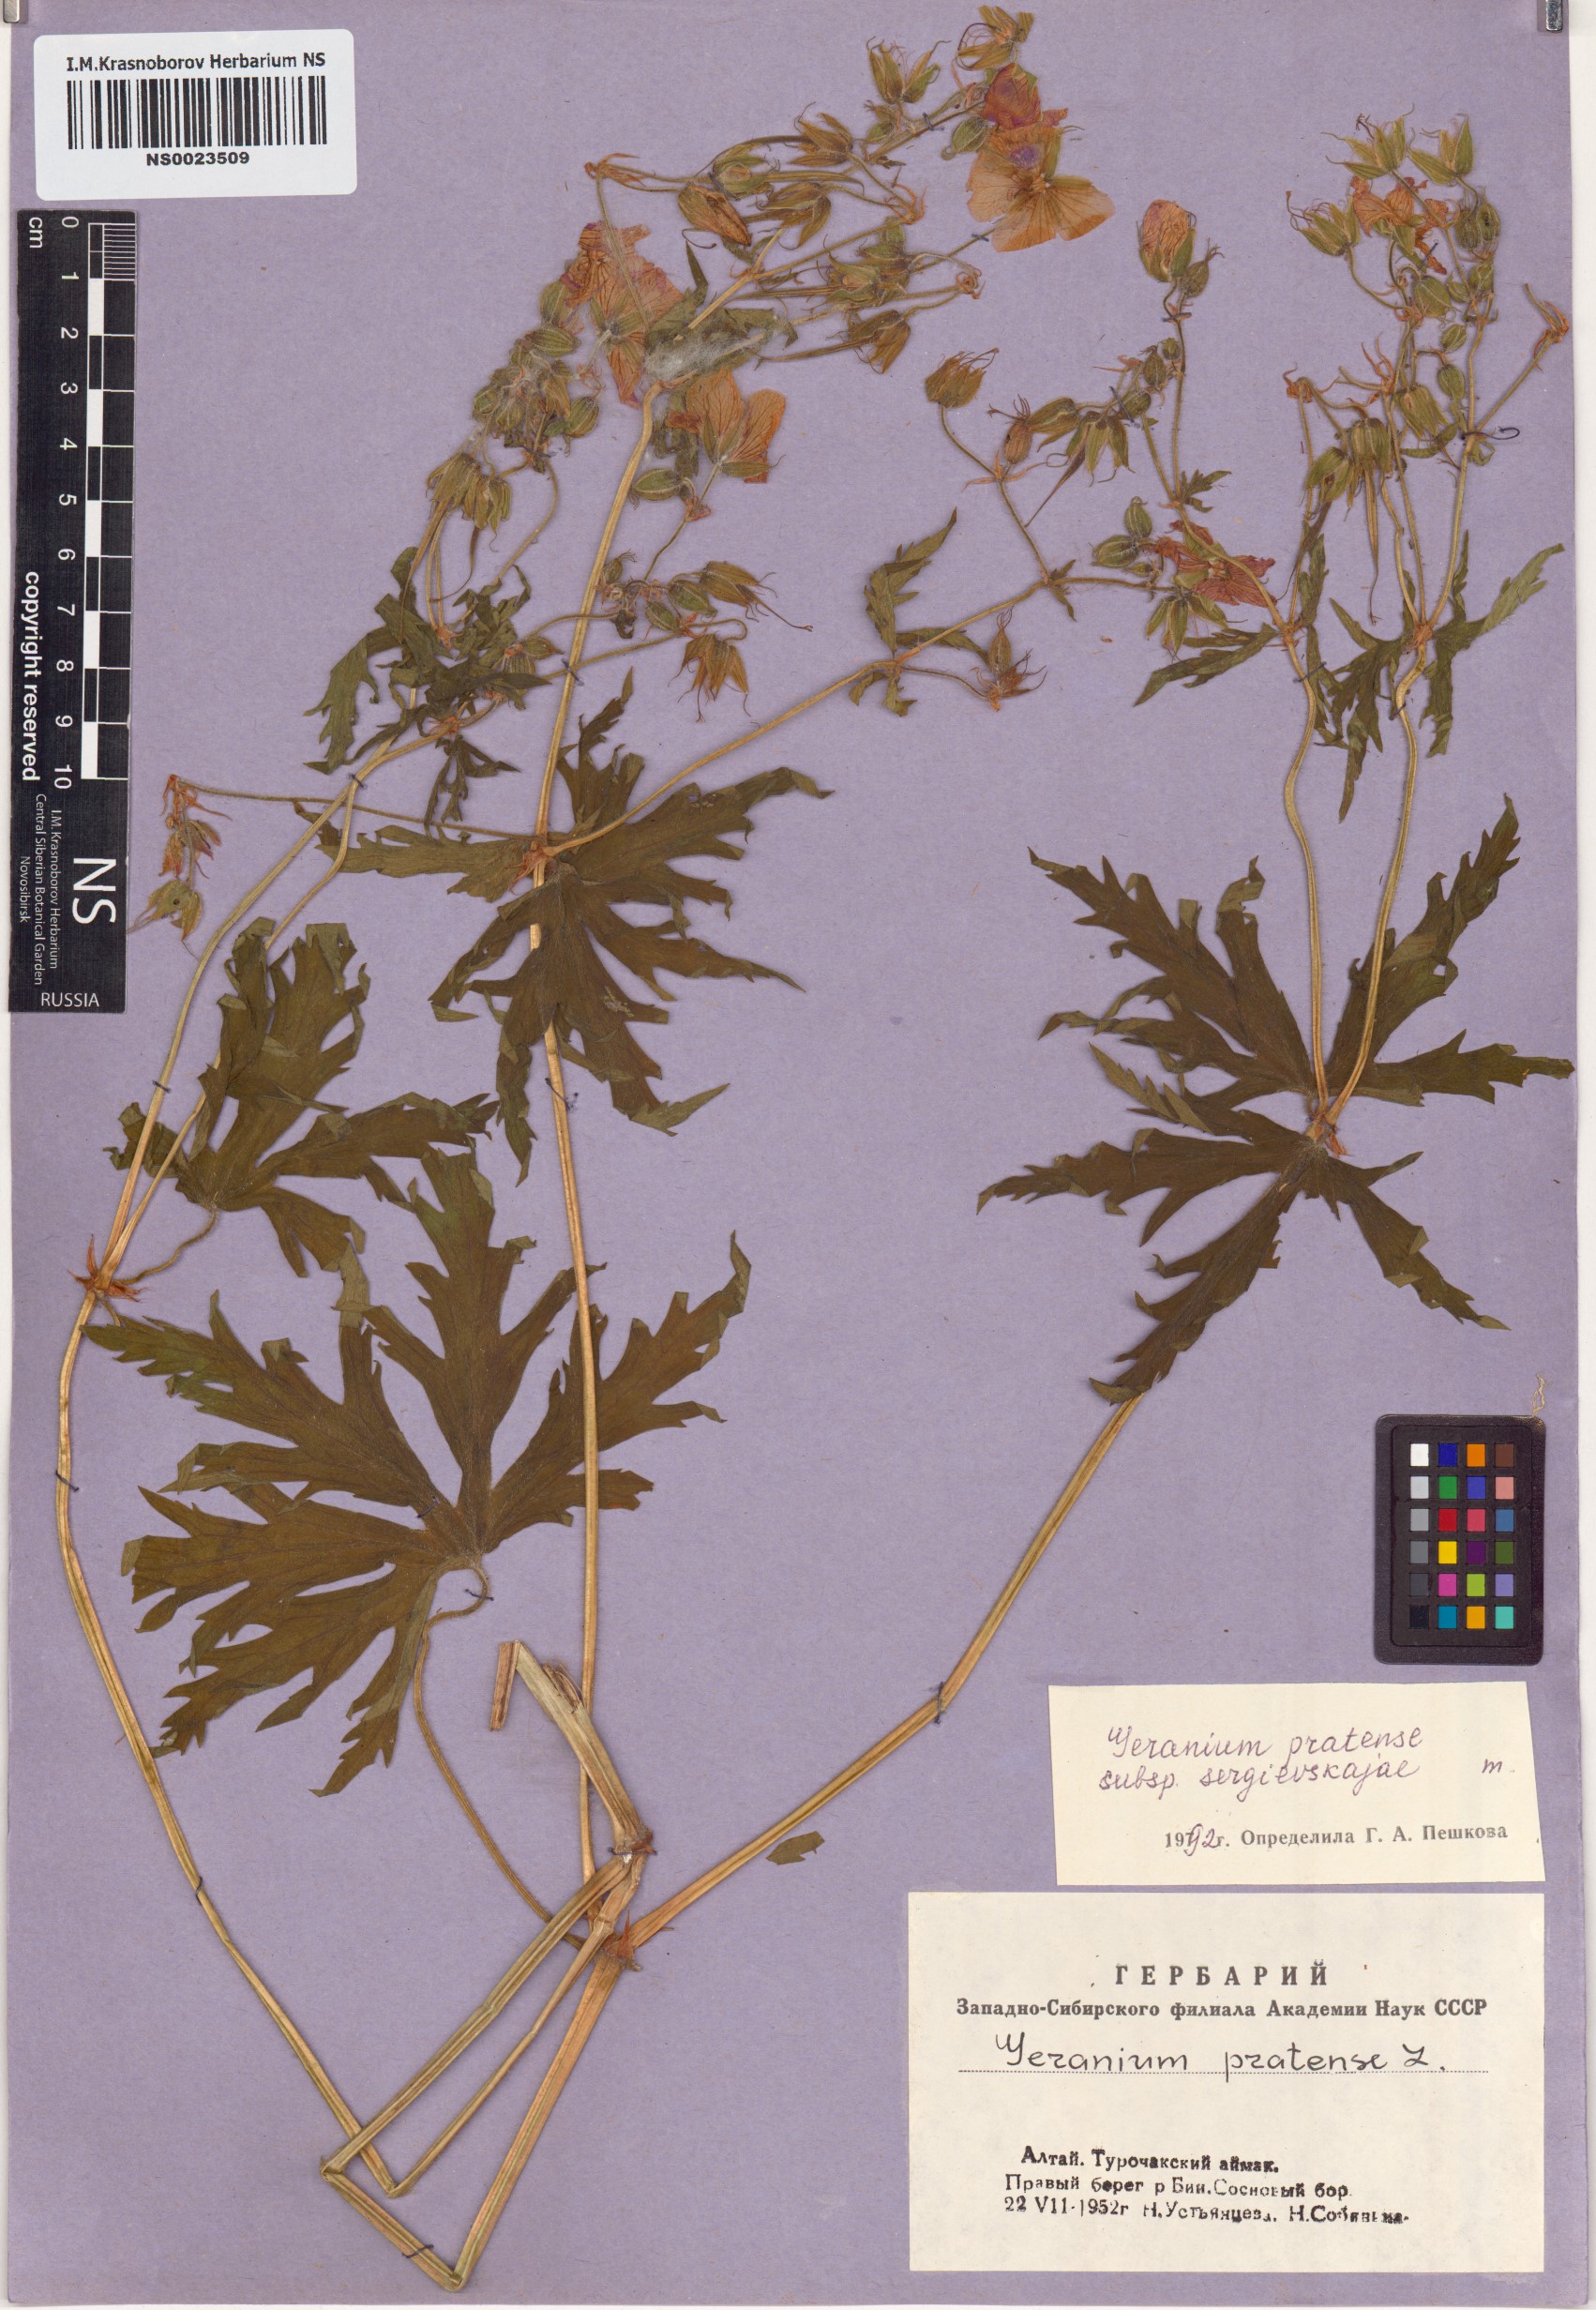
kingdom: Plantae
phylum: Tracheophyta
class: Magnoliopsida
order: Geraniales
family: Geraniaceae
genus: Geranium
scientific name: Geranium pratense
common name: Meadow crane's-bill
